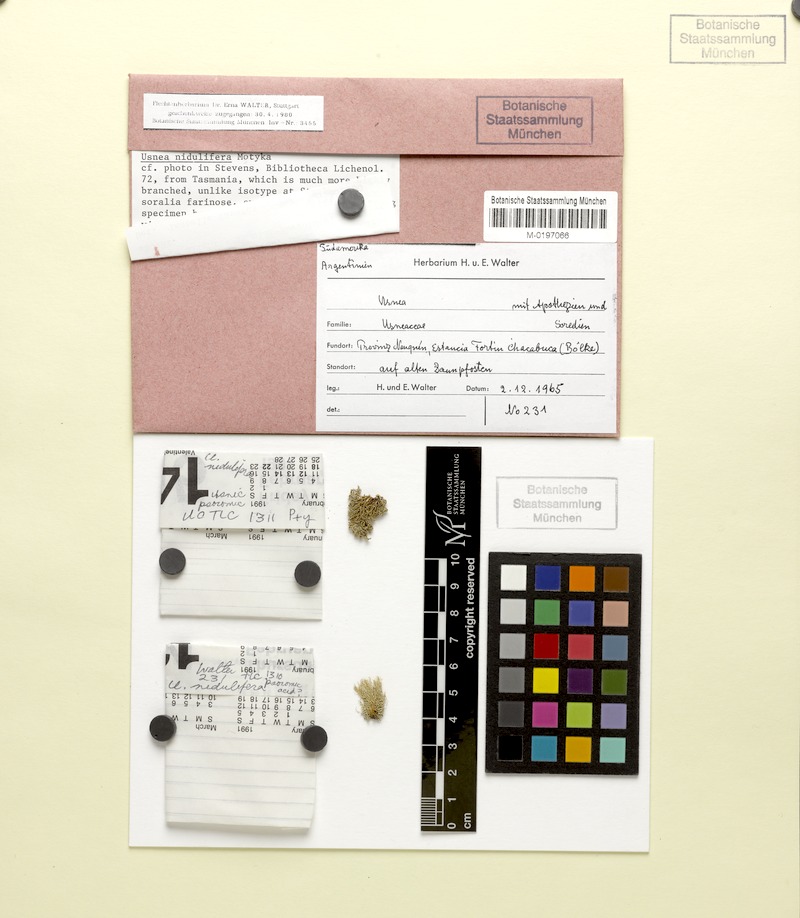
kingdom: Fungi
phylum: Ascomycota
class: Lecanoromycetes
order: Lecanorales
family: Parmeliaceae
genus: Usnea
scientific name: Usnea nidulifera
